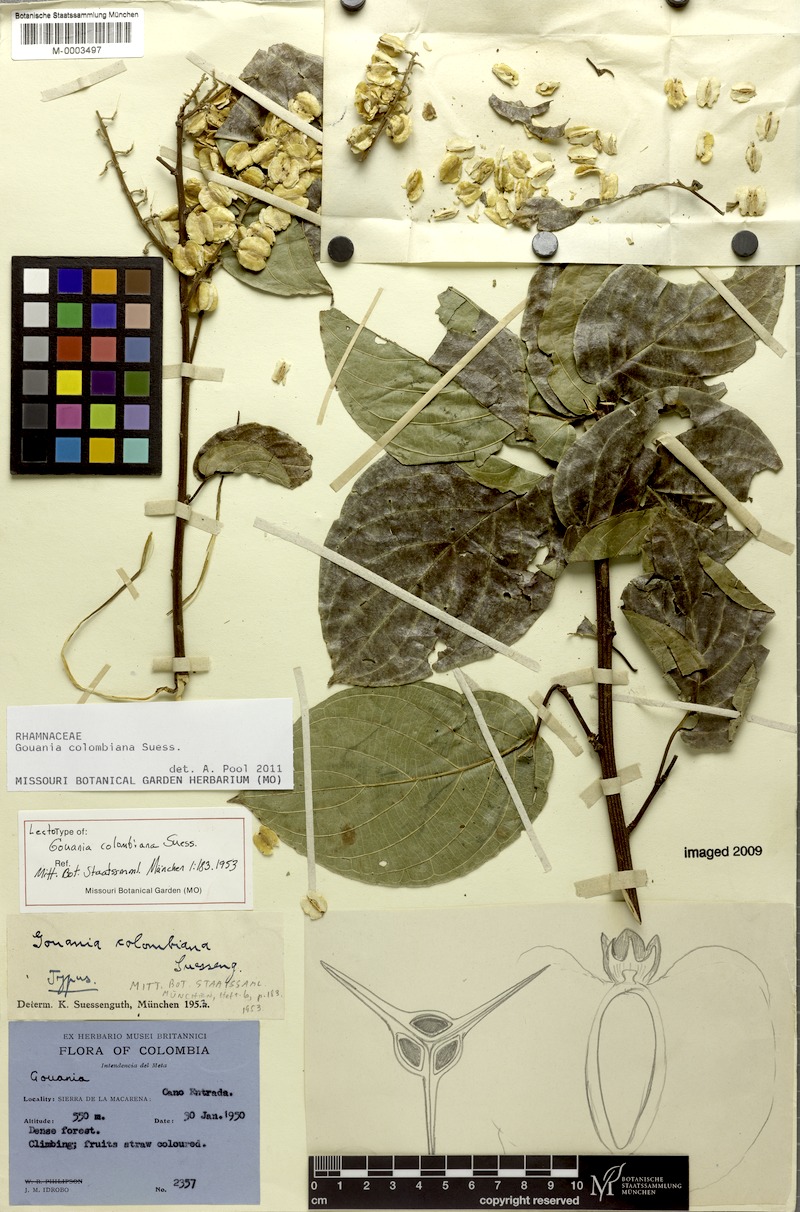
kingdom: Plantae
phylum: Tracheophyta
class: Magnoliopsida
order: Rosales
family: Rhamnaceae
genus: Gouania
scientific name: Gouania colombiana
